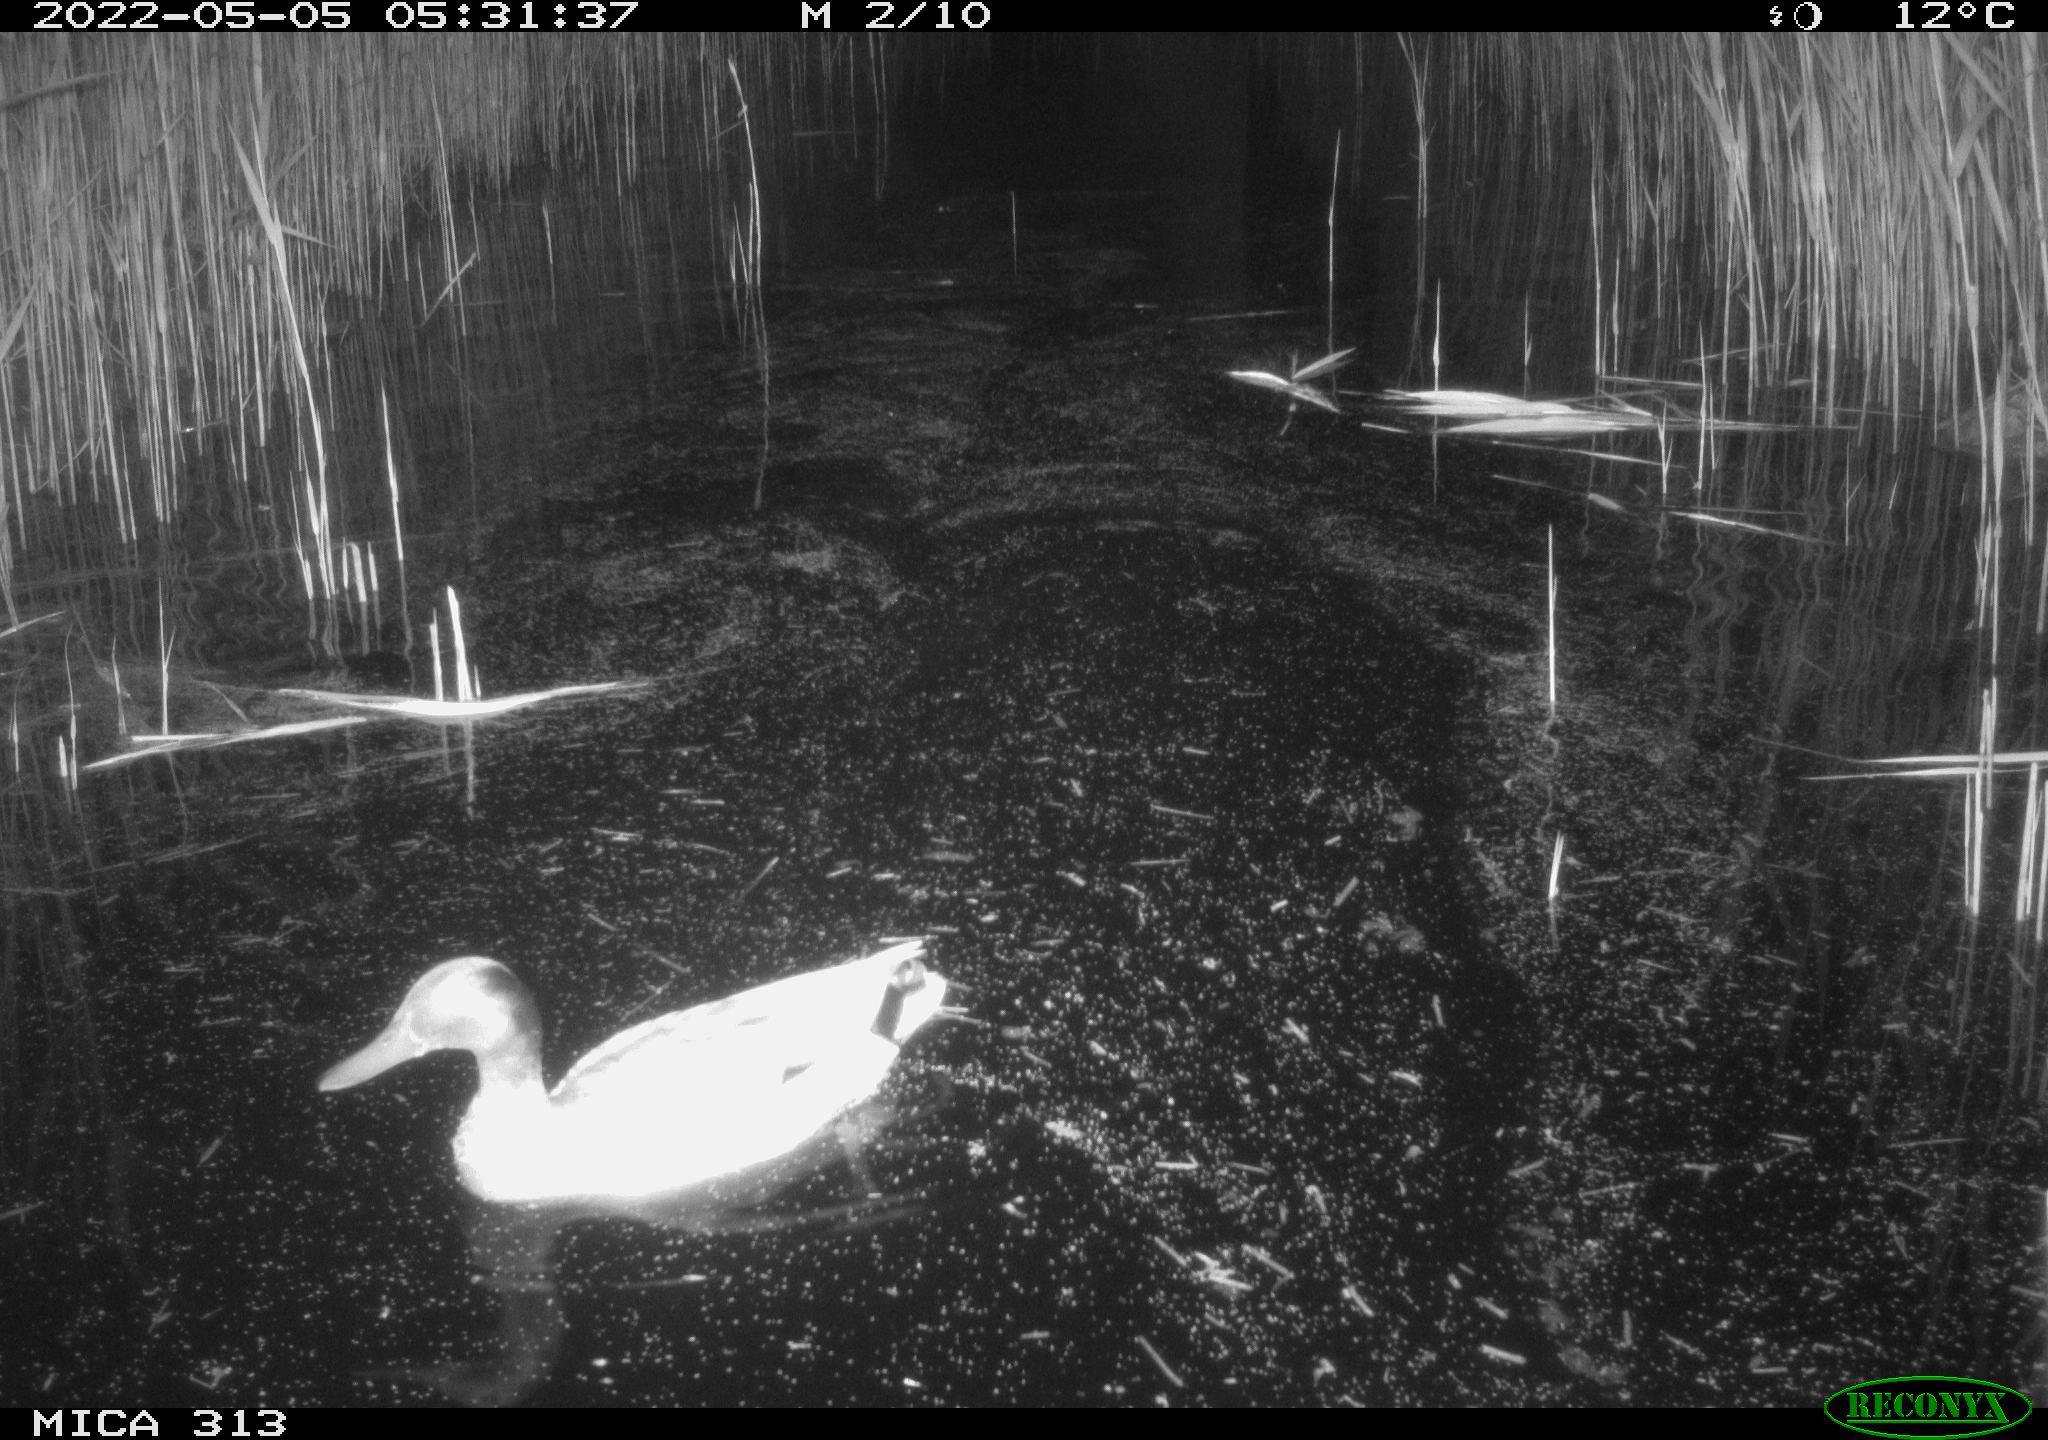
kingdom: Animalia
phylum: Chordata
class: Aves
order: Anseriformes
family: Anatidae
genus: Mareca
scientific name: Mareca strepera
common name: Gadwall
